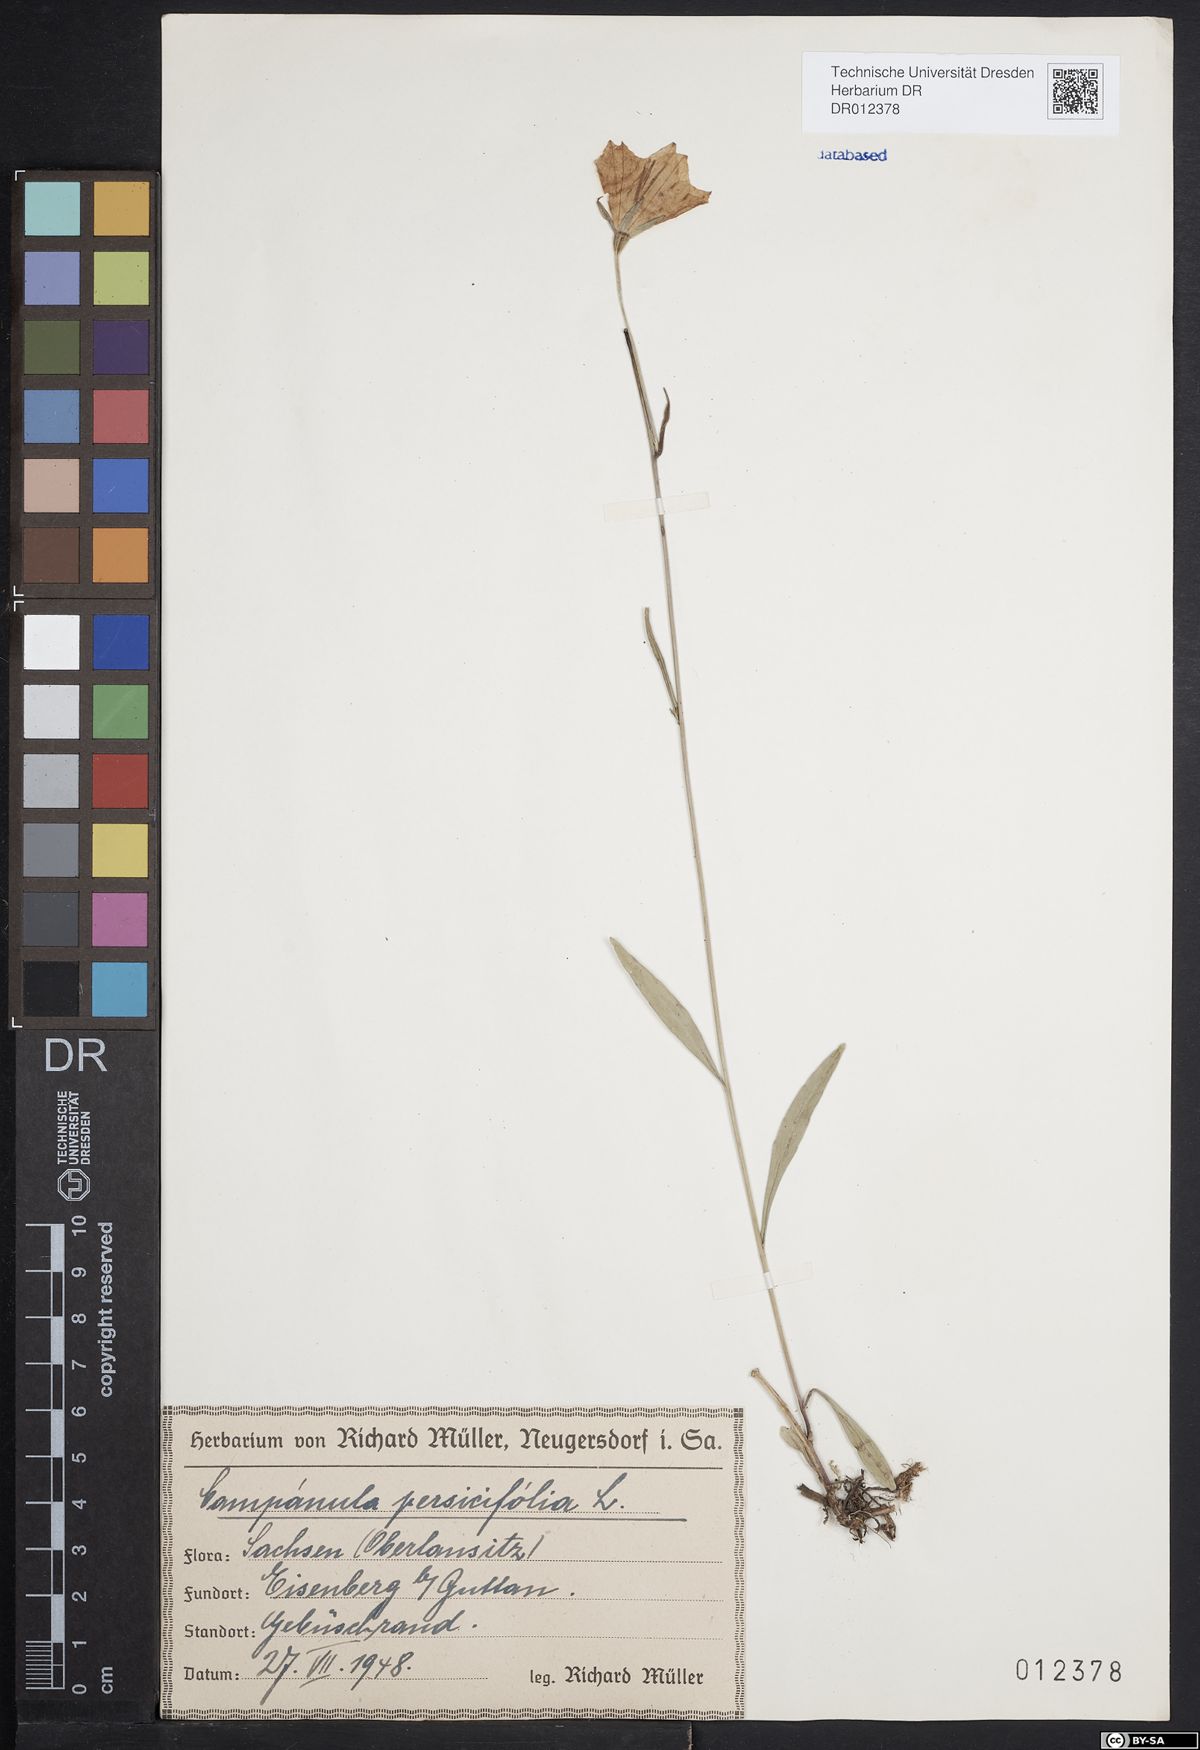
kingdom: Plantae
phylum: Tracheophyta
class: Magnoliopsida
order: Asterales
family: Campanulaceae
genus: Campanula
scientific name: Campanula persicifolia
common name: Peach-leaved bellflower
